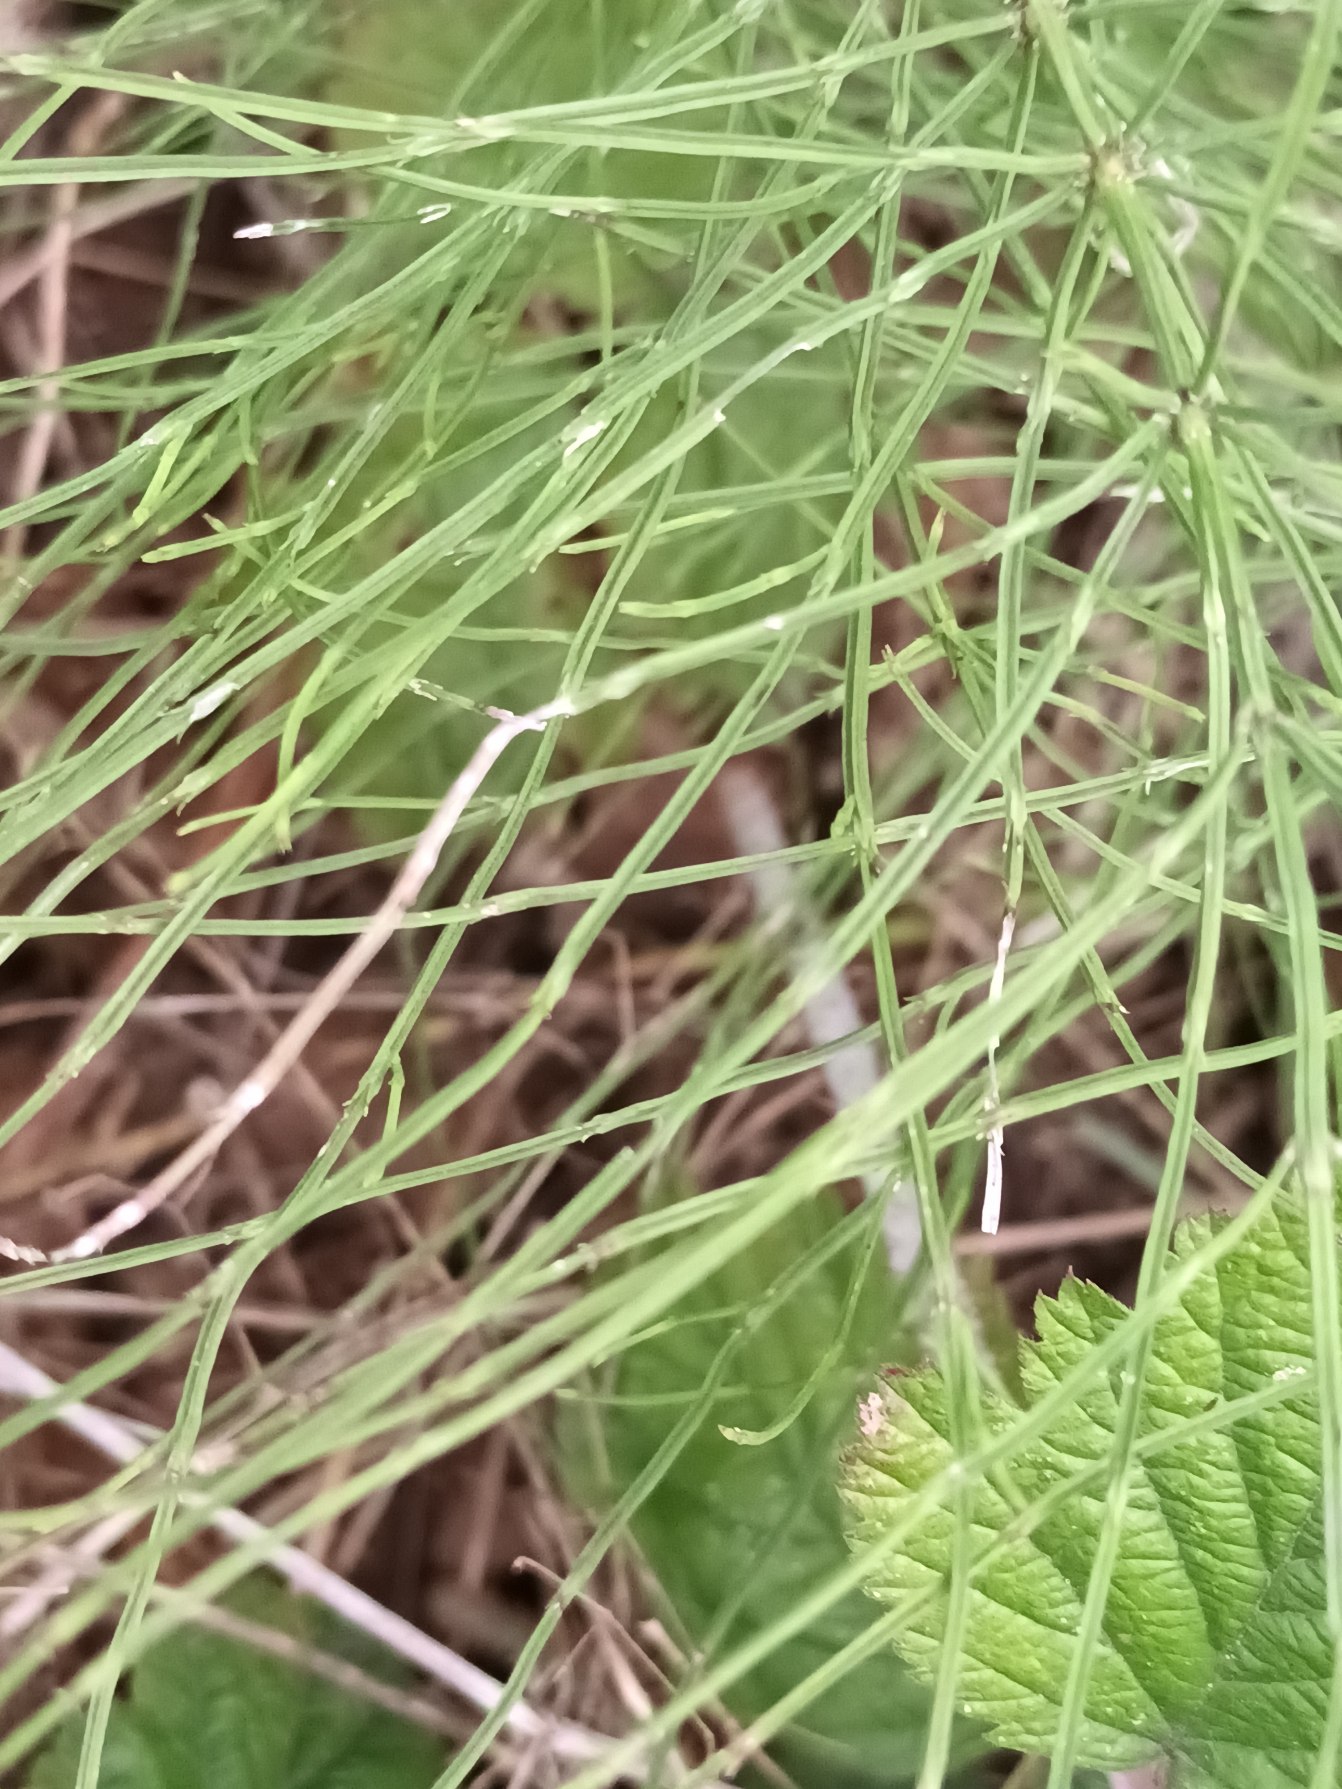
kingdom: Plantae
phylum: Tracheophyta
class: Polypodiopsida
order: Equisetales
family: Equisetaceae
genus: Equisetum
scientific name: Equisetum arvense
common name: Ager-padderok
